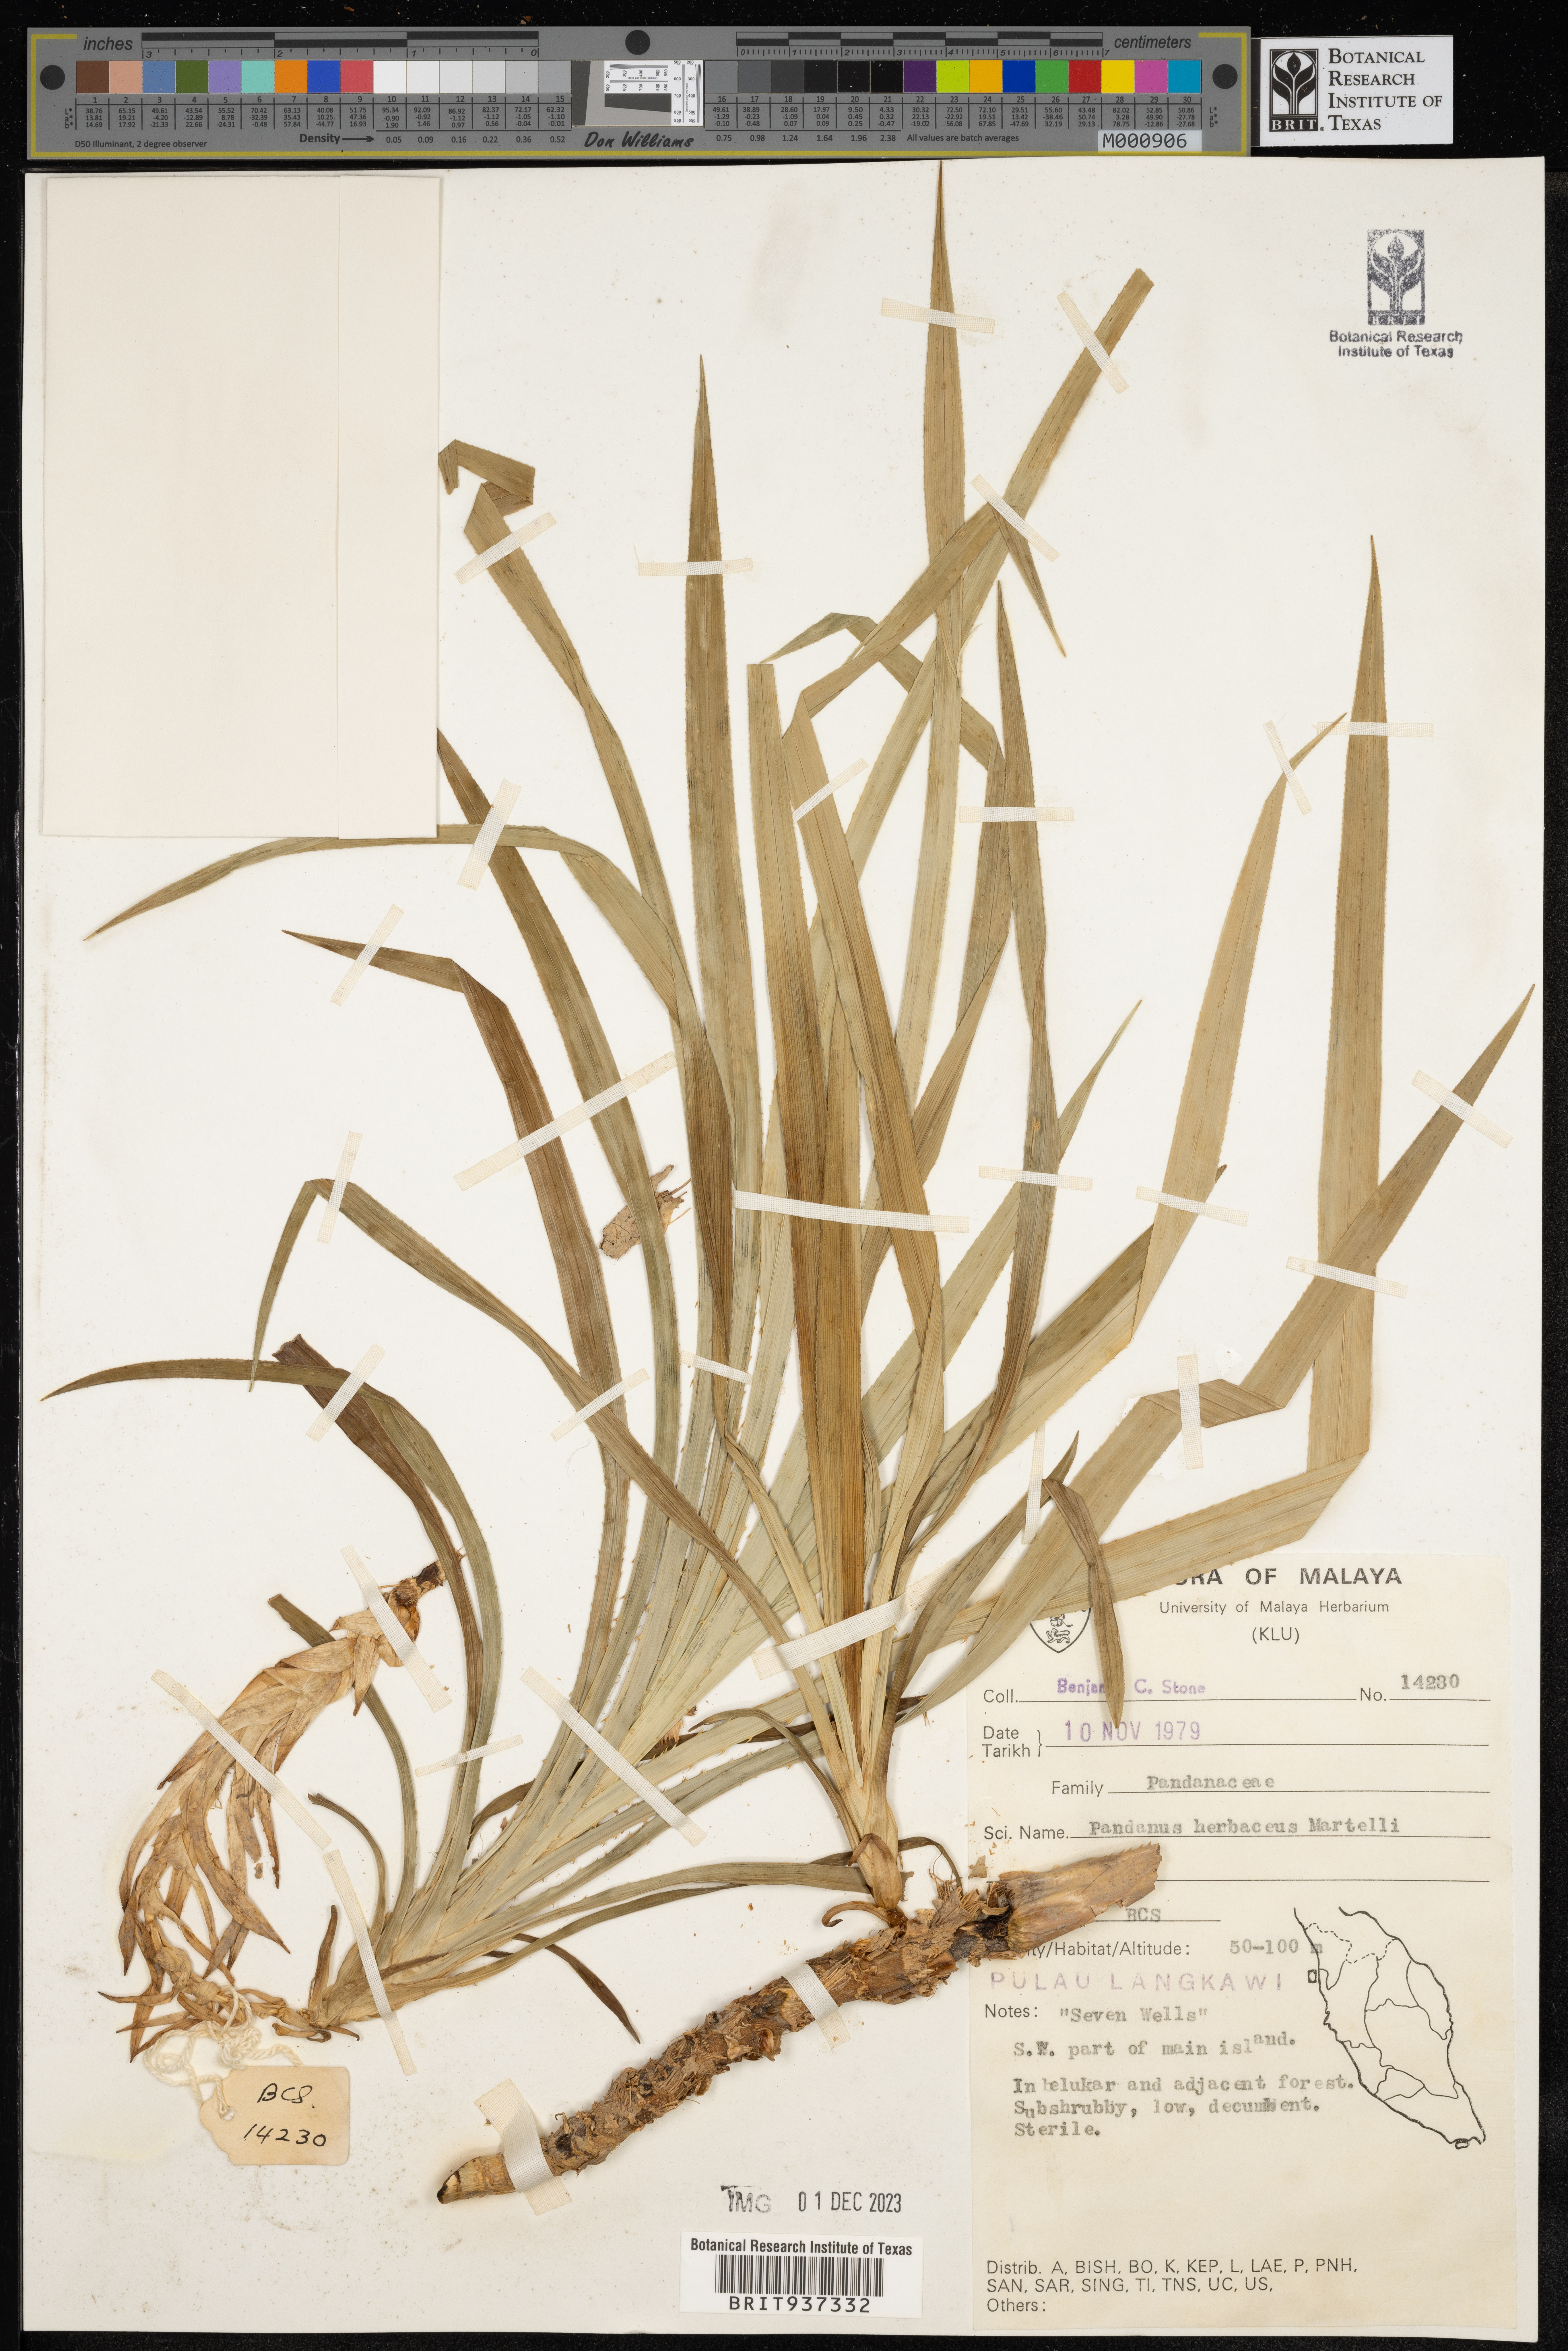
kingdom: Plantae
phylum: Tracheophyta
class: Liliopsida
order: Pandanales
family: Pandanaceae
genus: Pandanus
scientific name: Pandanus
